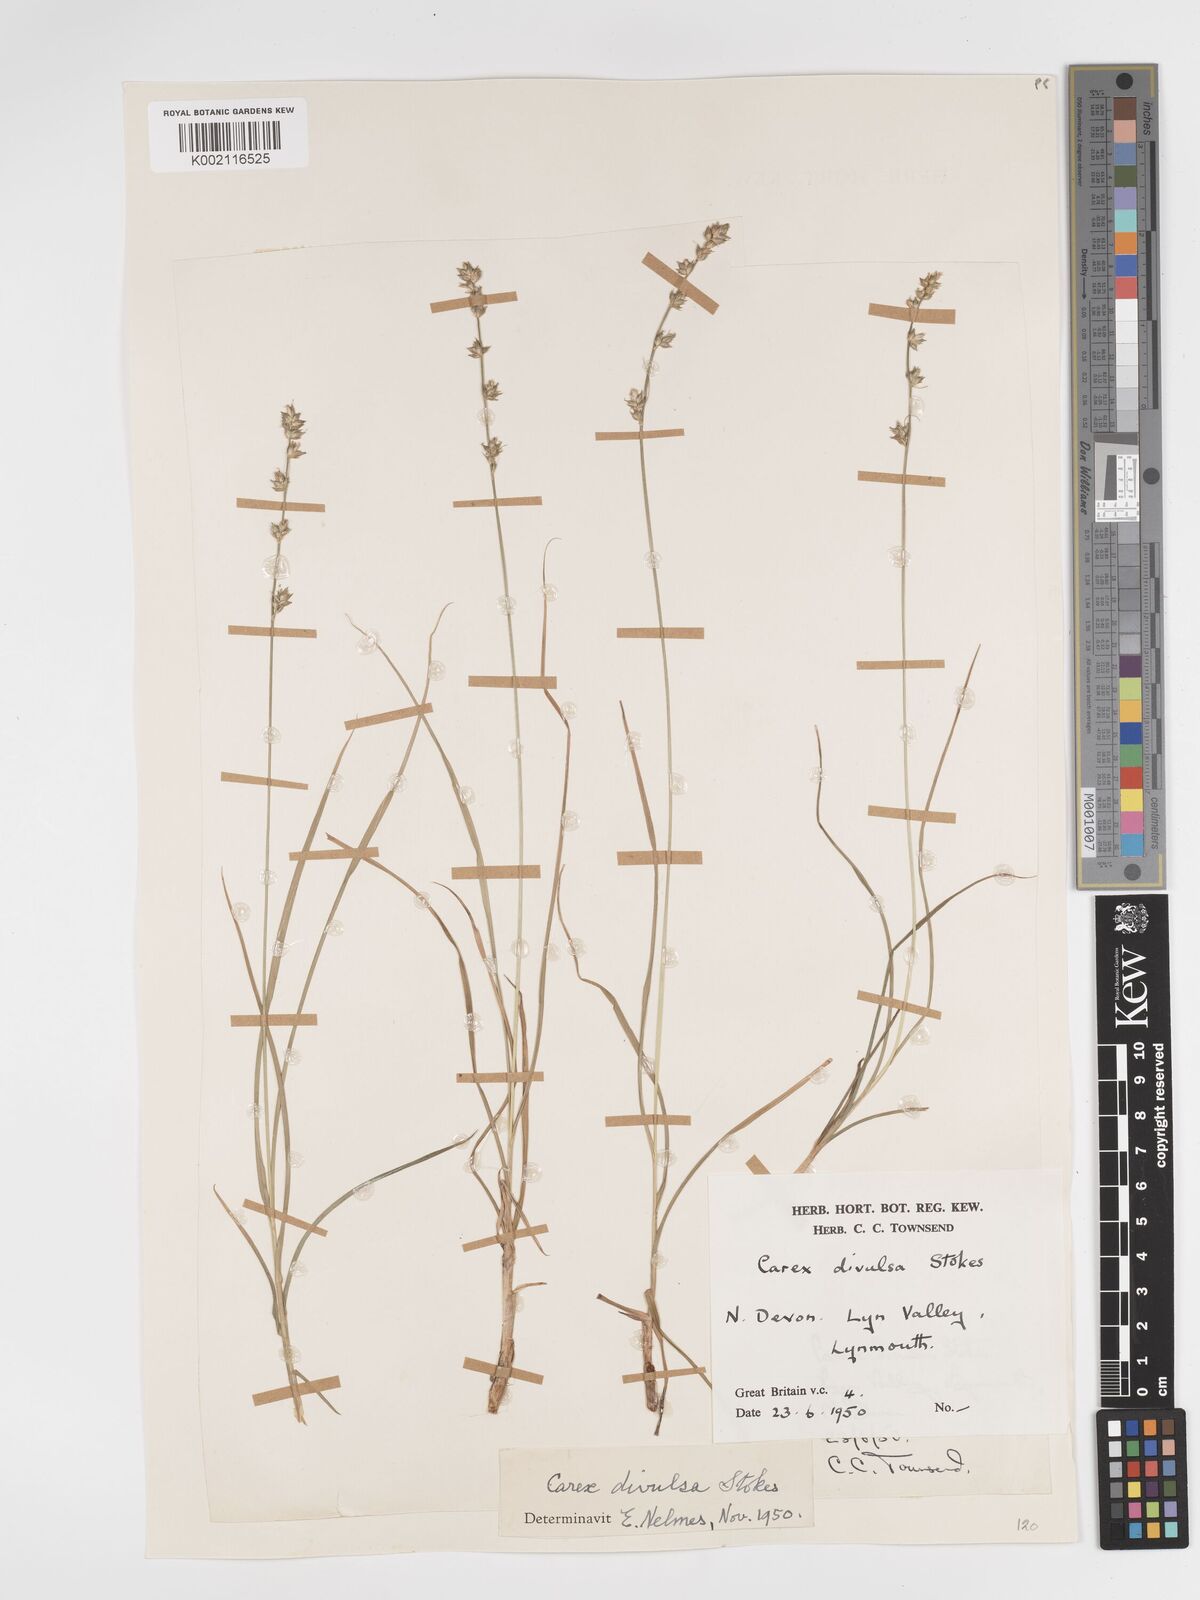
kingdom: Plantae
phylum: Tracheophyta
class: Liliopsida
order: Poales
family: Cyperaceae
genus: Carex
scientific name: Carex divulsa
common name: Grassland sedge
